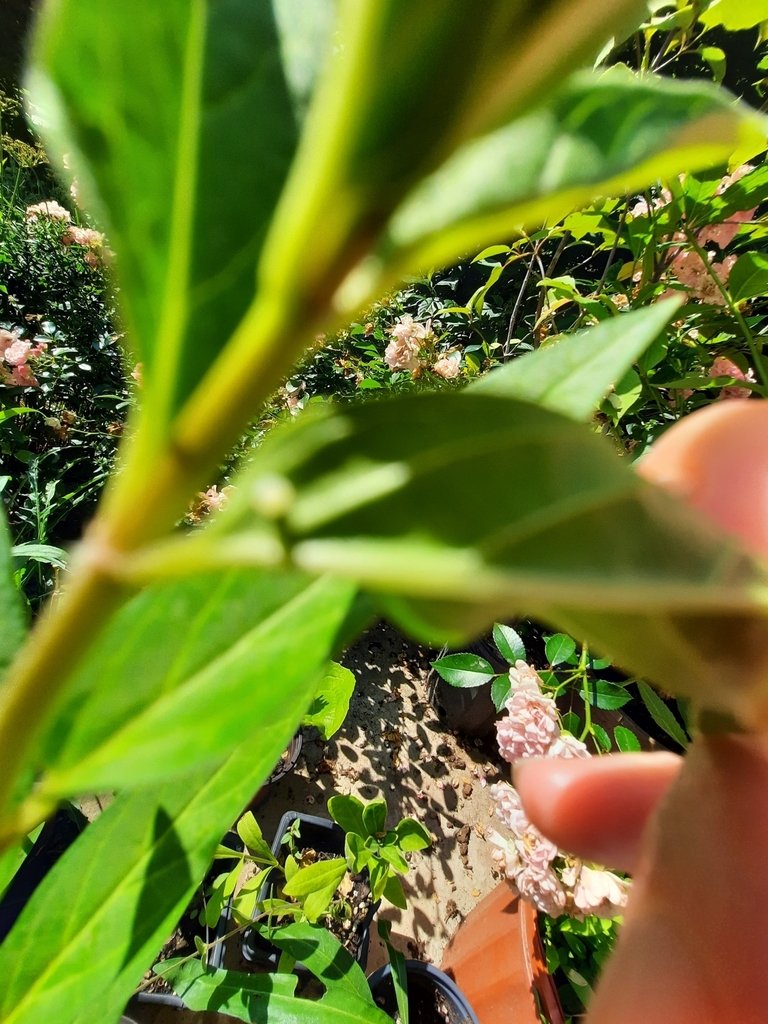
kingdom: Animalia
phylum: Arthropoda
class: Insecta
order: Lepidoptera
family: Nymphalidae
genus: Danaus
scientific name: Danaus plexippus
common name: Monarch
